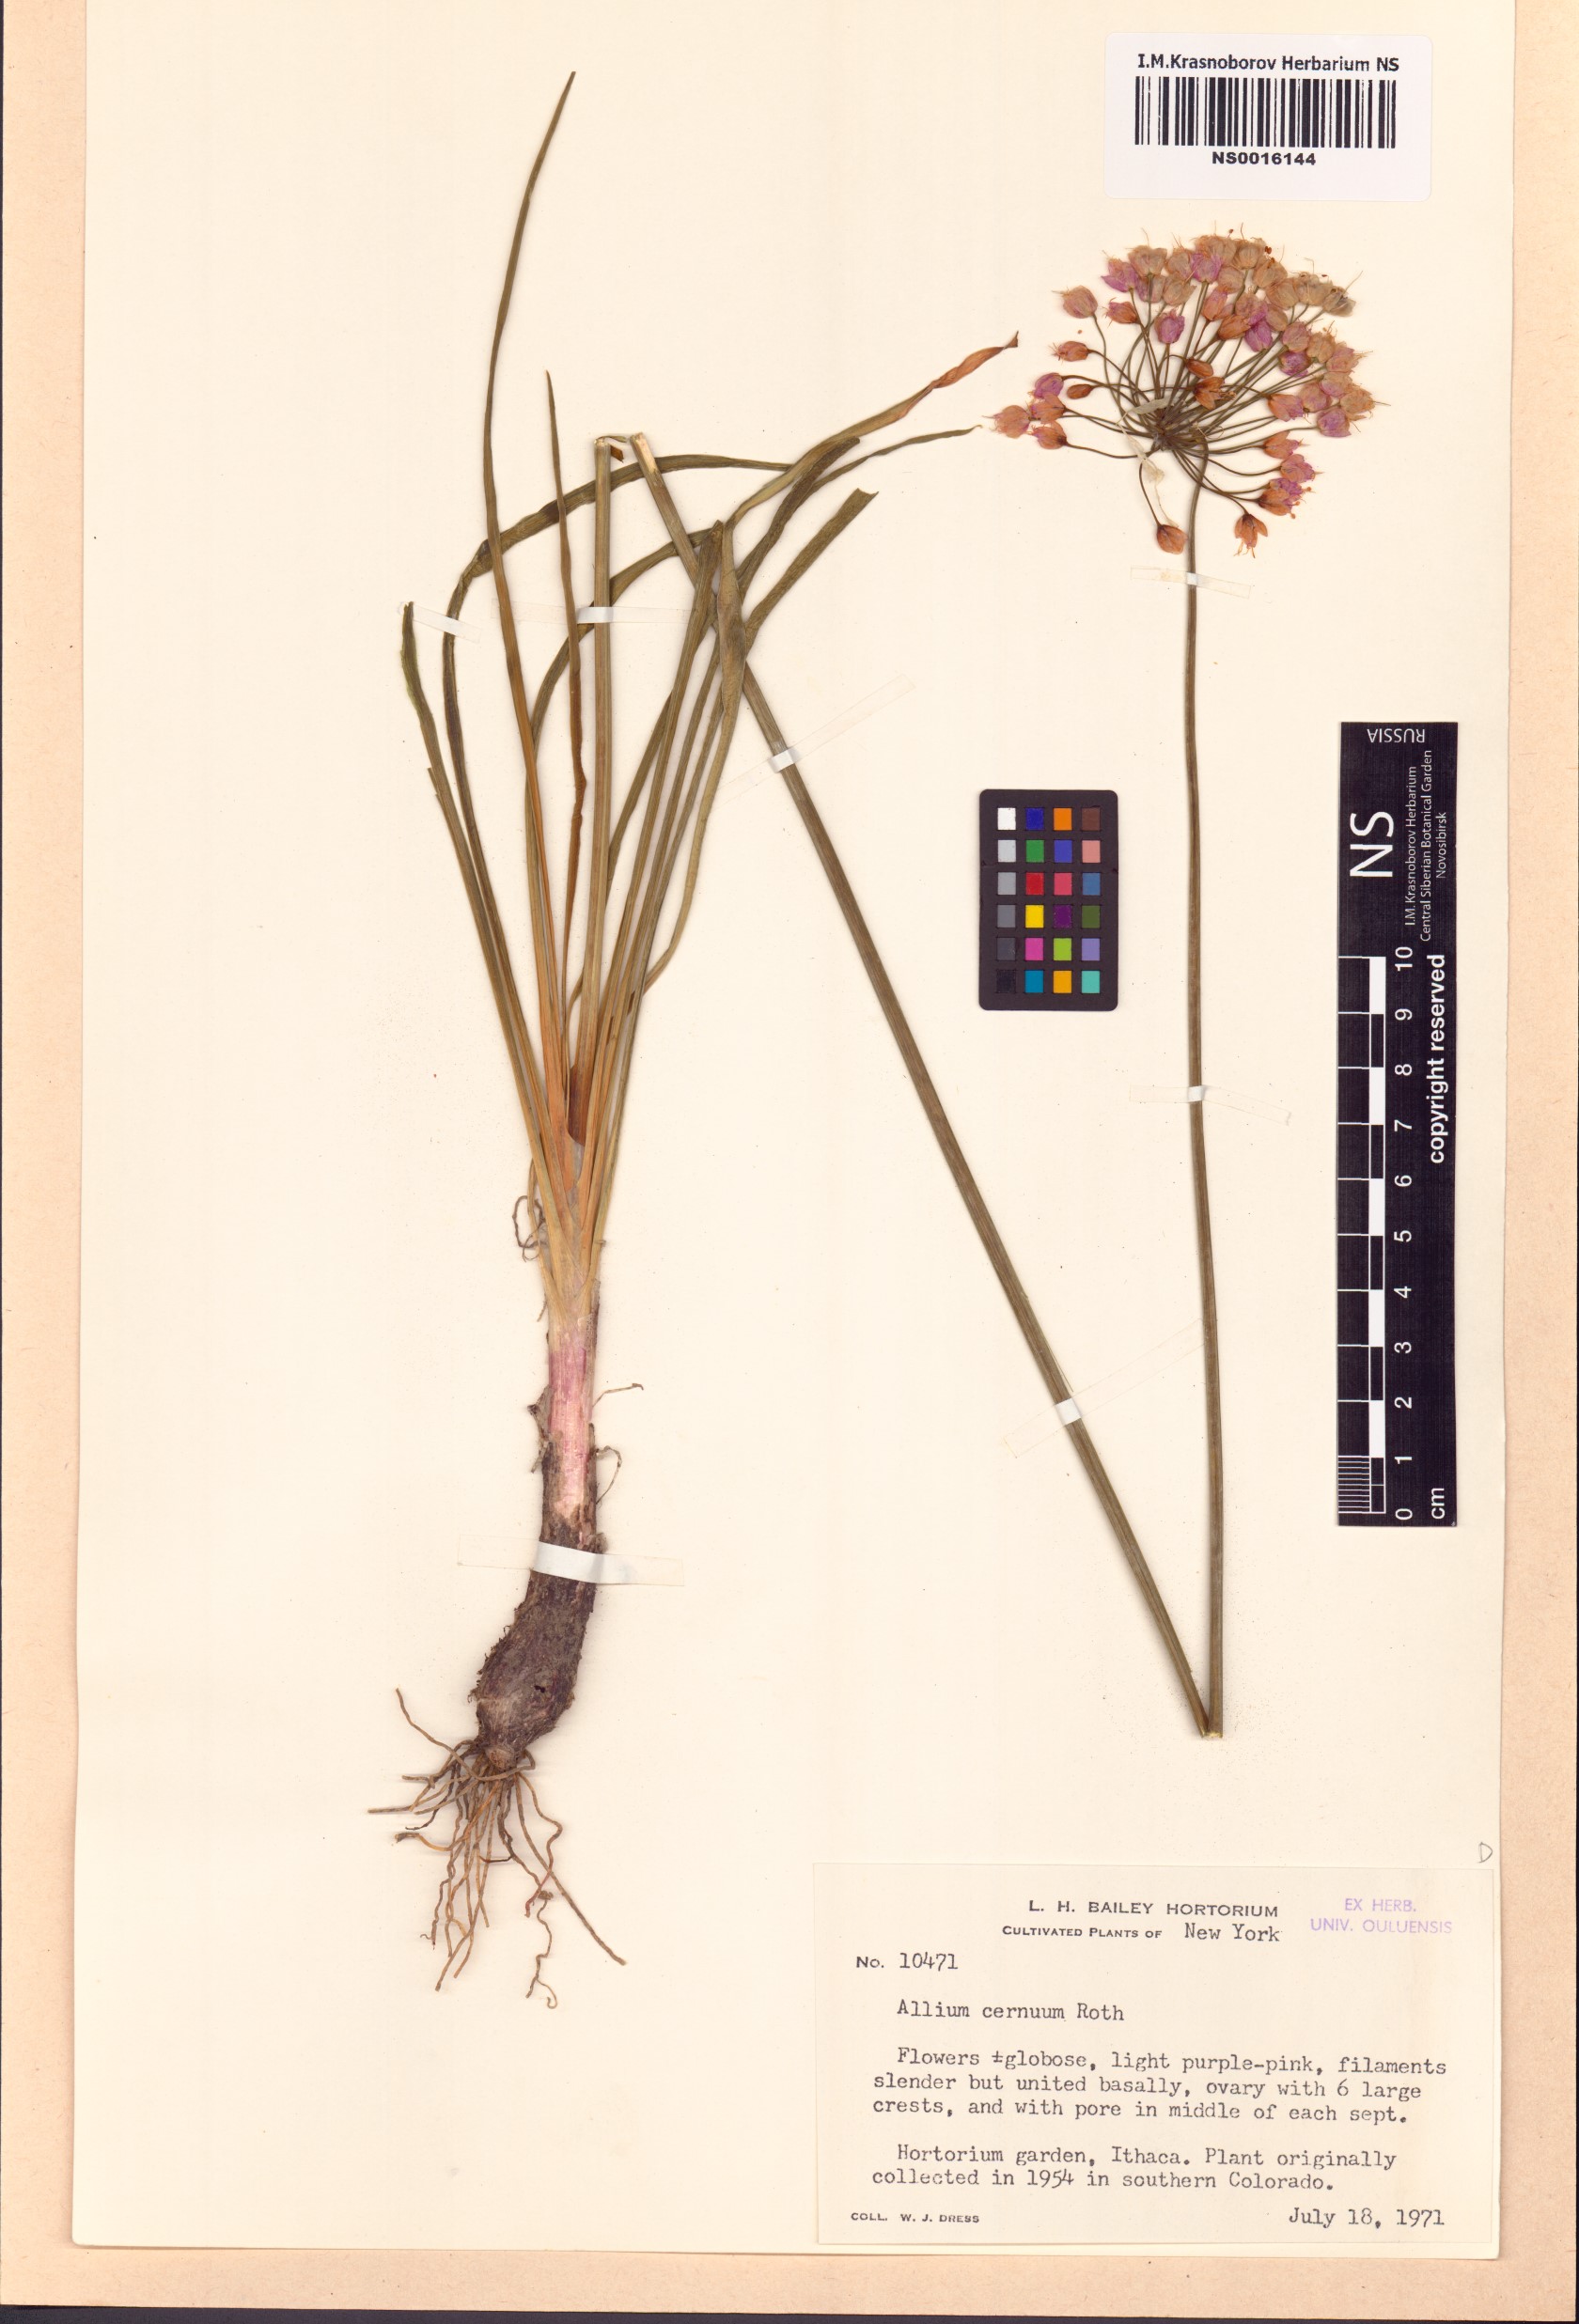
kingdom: Plantae
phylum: Tracheophyta
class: Liliopsida
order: Asparagales
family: Amaryllidaceae
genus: Allium
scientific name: Allium cernuum
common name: Nodding onion
